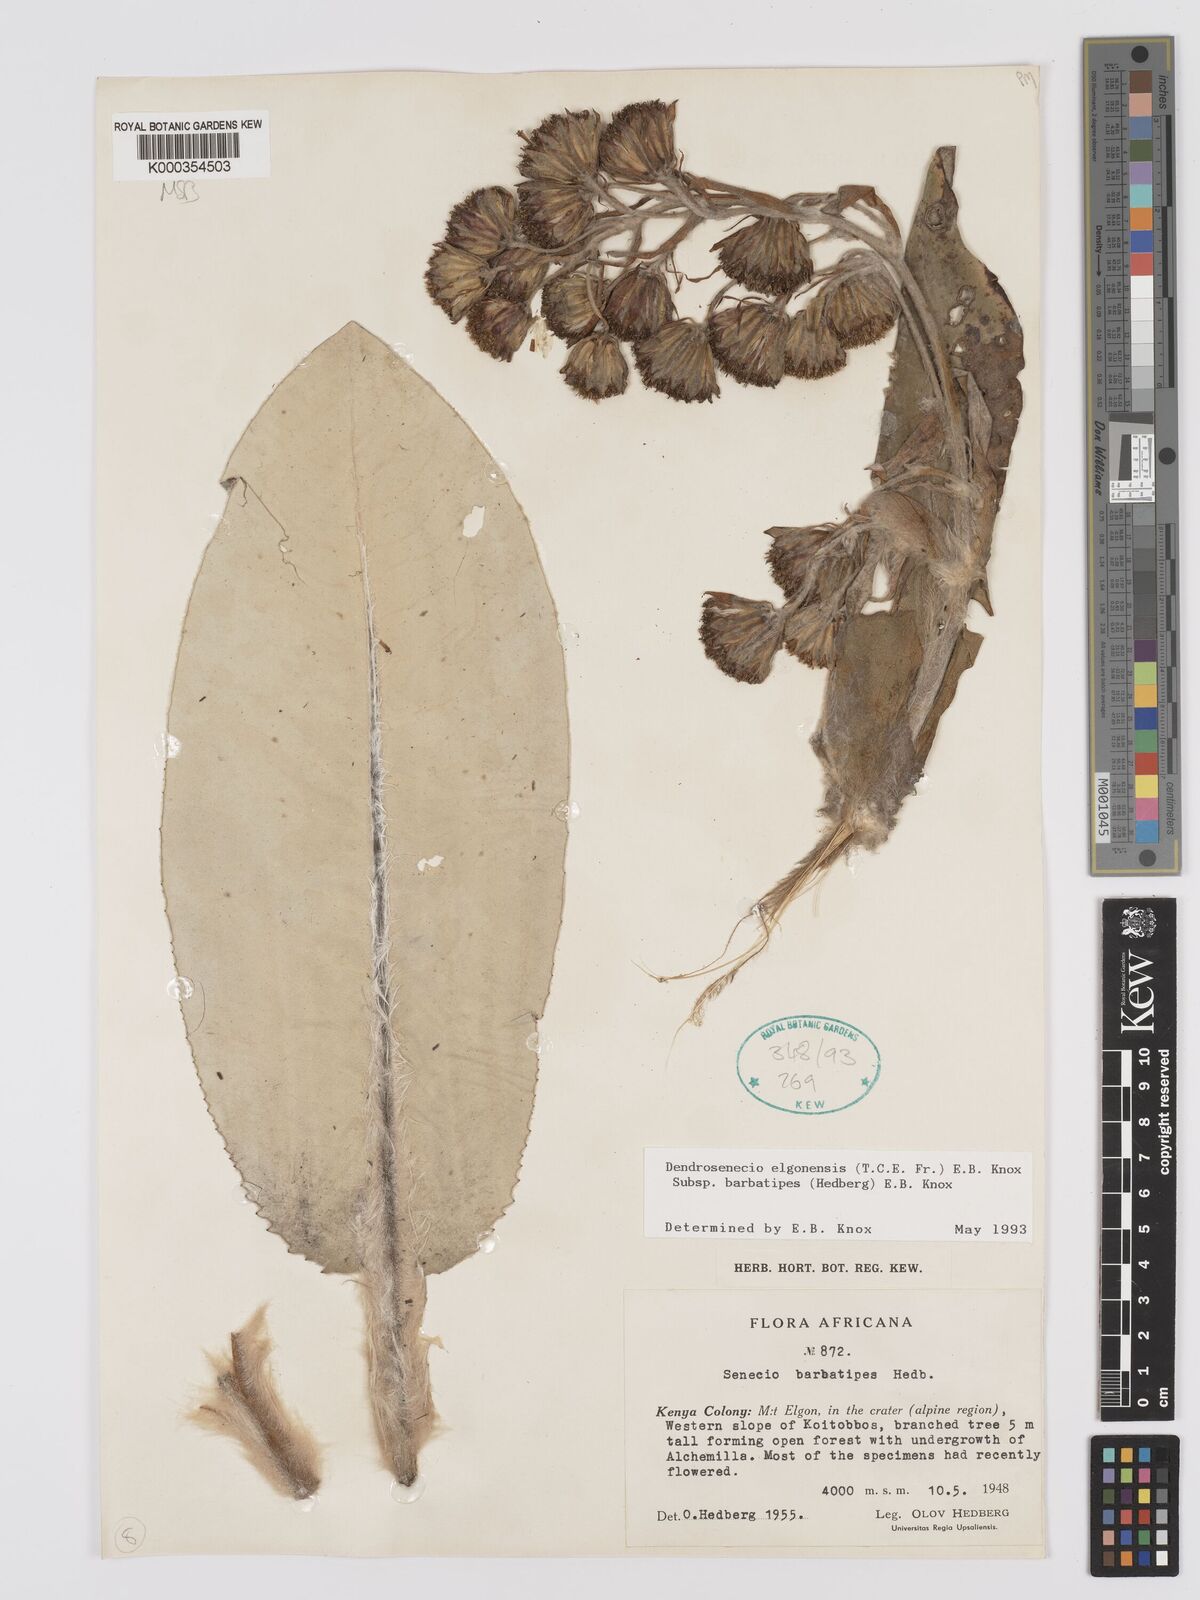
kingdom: Plantae
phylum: Tracheophyta
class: Magnoliopsida
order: Asterales
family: Asteraceae
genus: Dendrosenecio
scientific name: Dendrosenecio elgonensis
